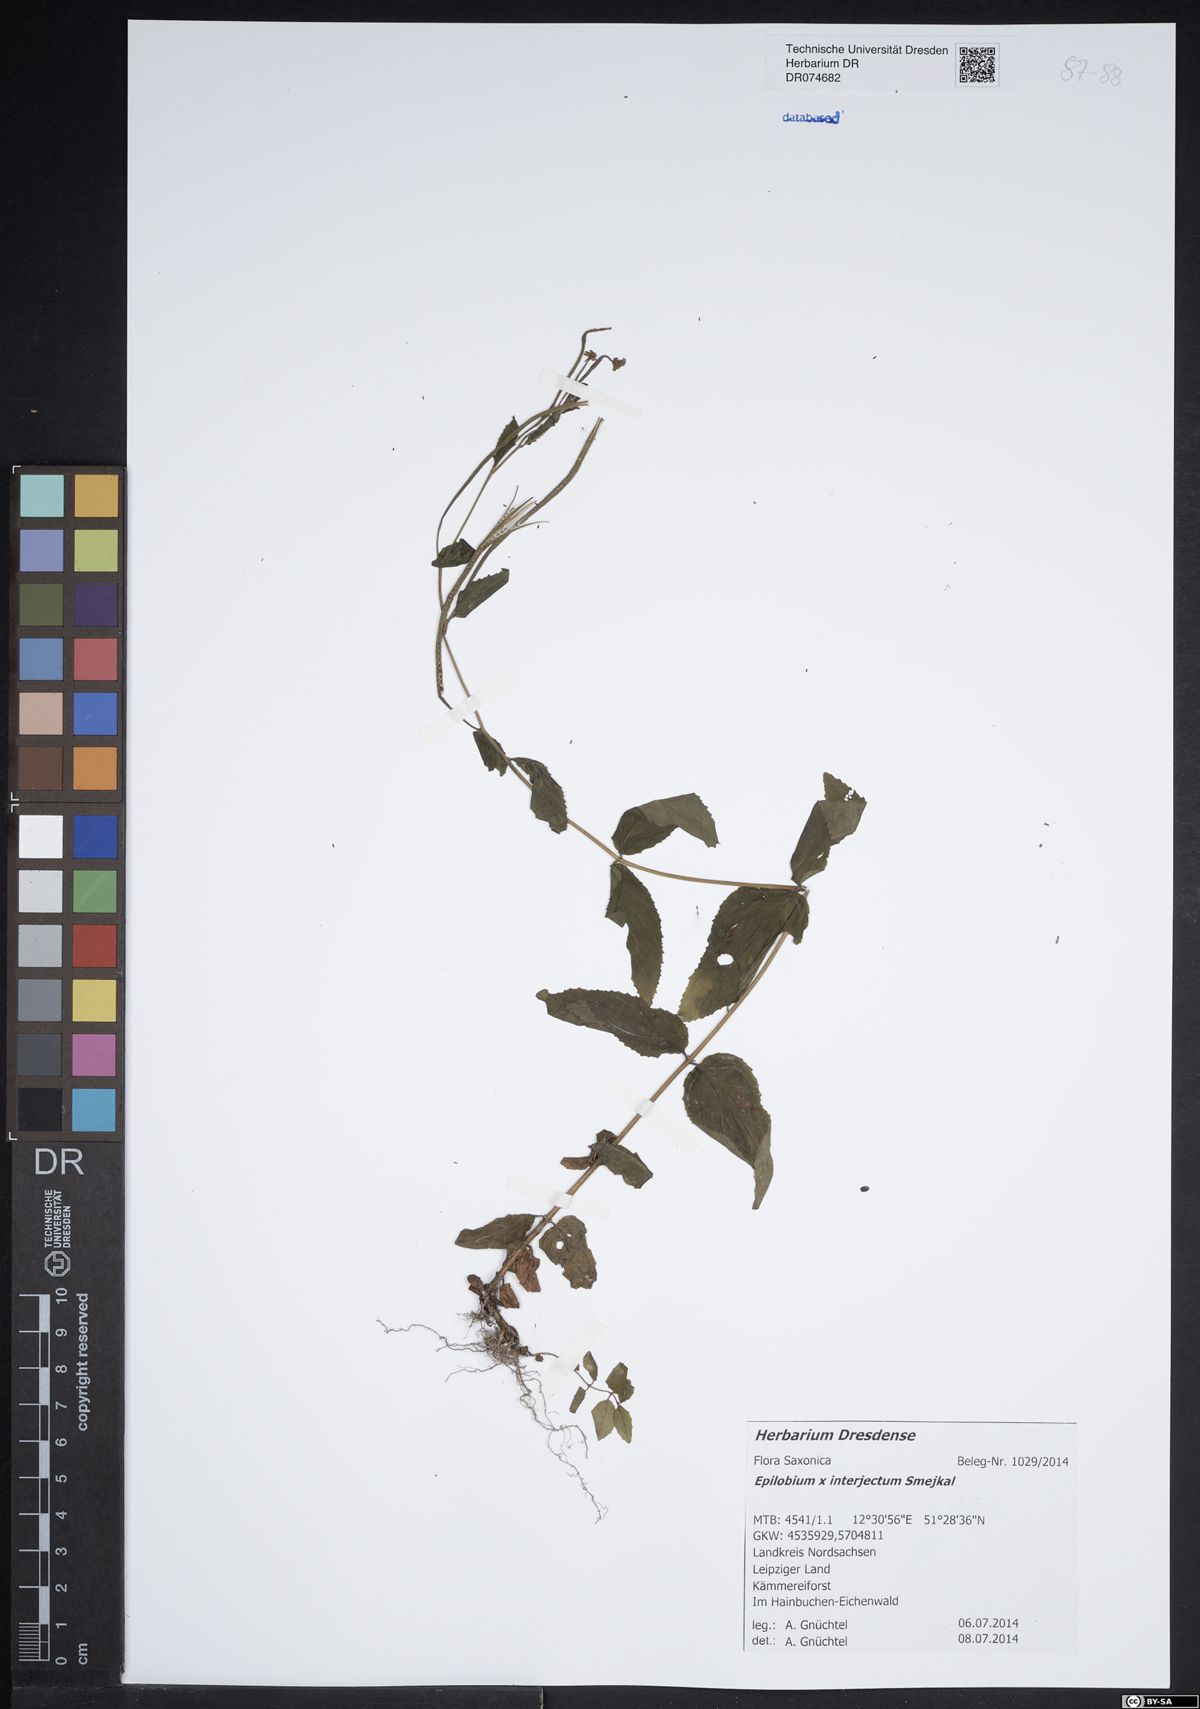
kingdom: Plantae
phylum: Tracheophyta
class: Magnoliopsida
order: Myrtales
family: Onagraceae
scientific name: Onagraceae
